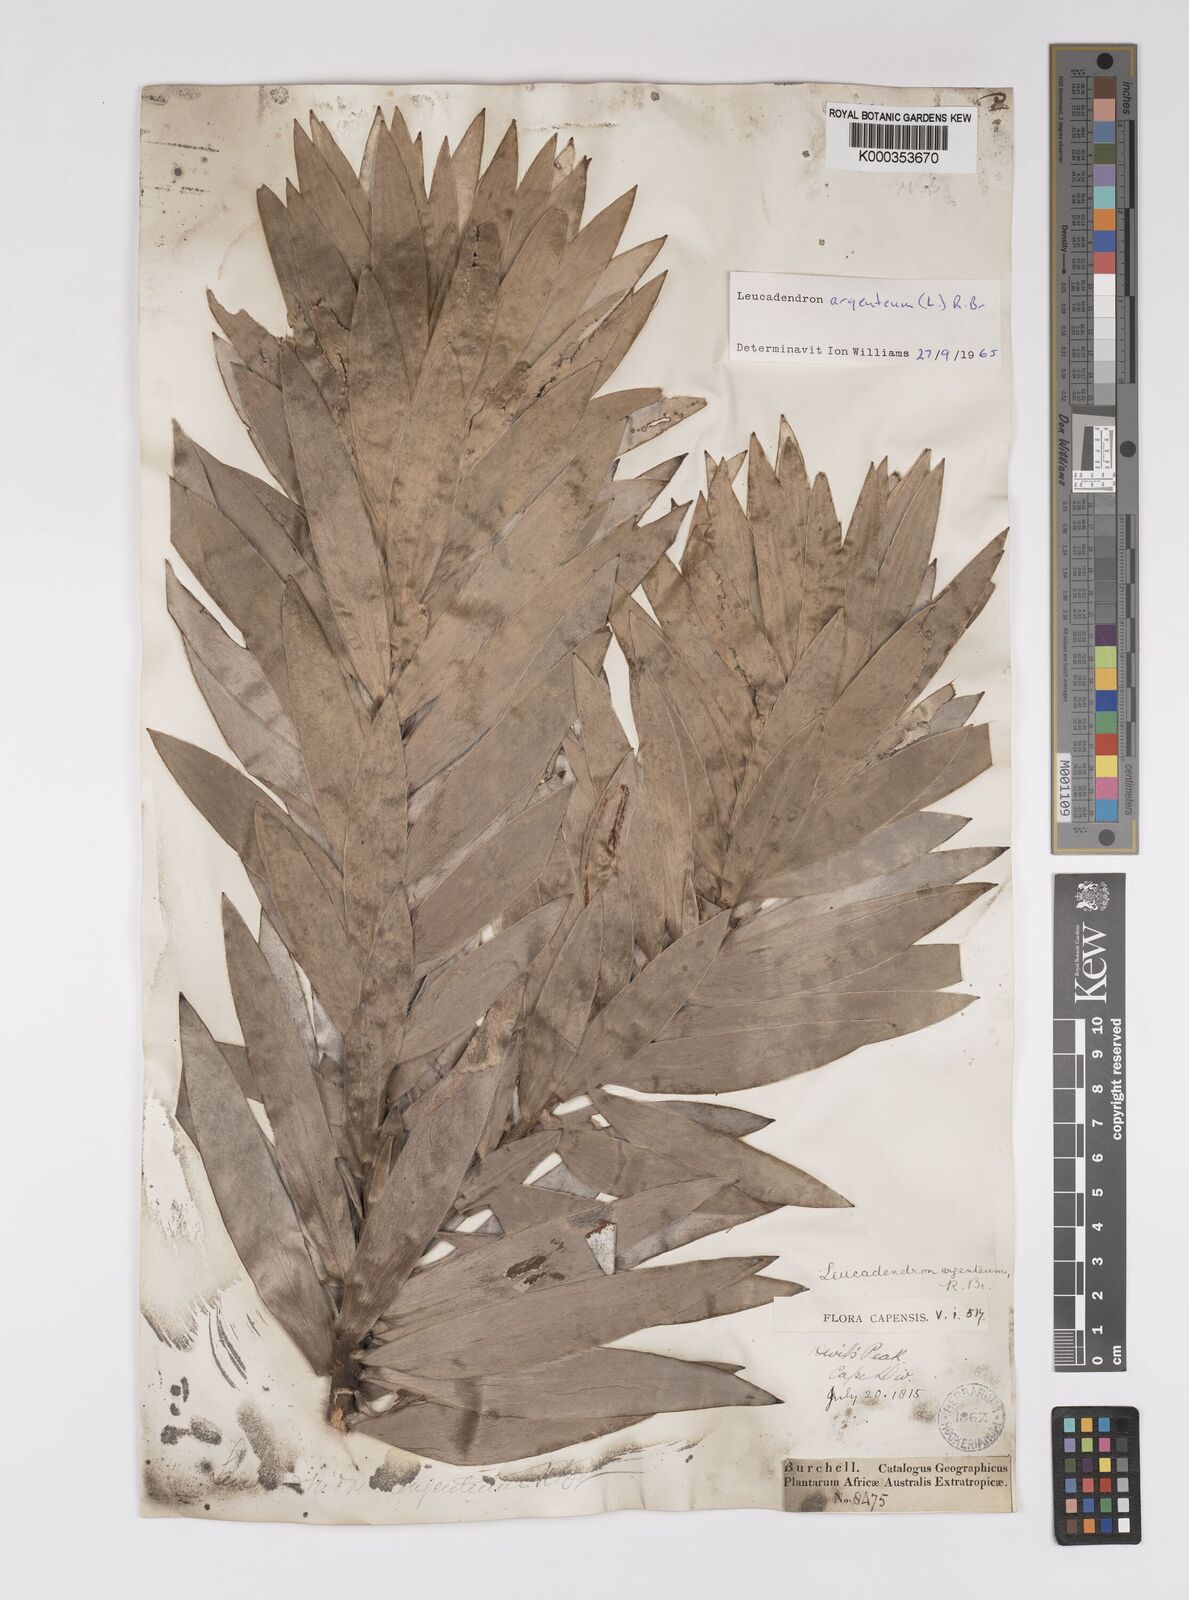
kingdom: Plantae
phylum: Tracheophyta
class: Magnoliopsida
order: Proteales
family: Proteaceae
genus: Leucadendron
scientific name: Leucadendron argenteum
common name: Cape silver tree
